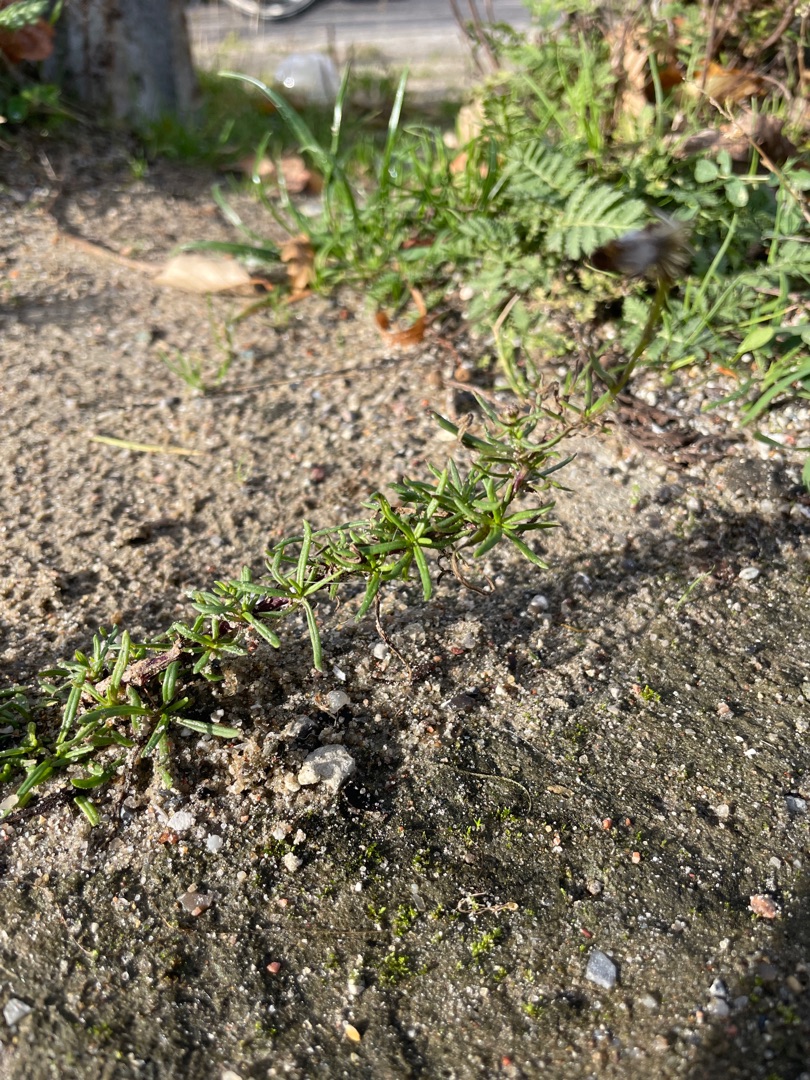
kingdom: Plantae
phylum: Tracheophyta
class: Magnoliopsida
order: Asterales
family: Asteraceae
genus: Senecio
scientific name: Senecio inaequidens
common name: Smalbladet brandbæger
